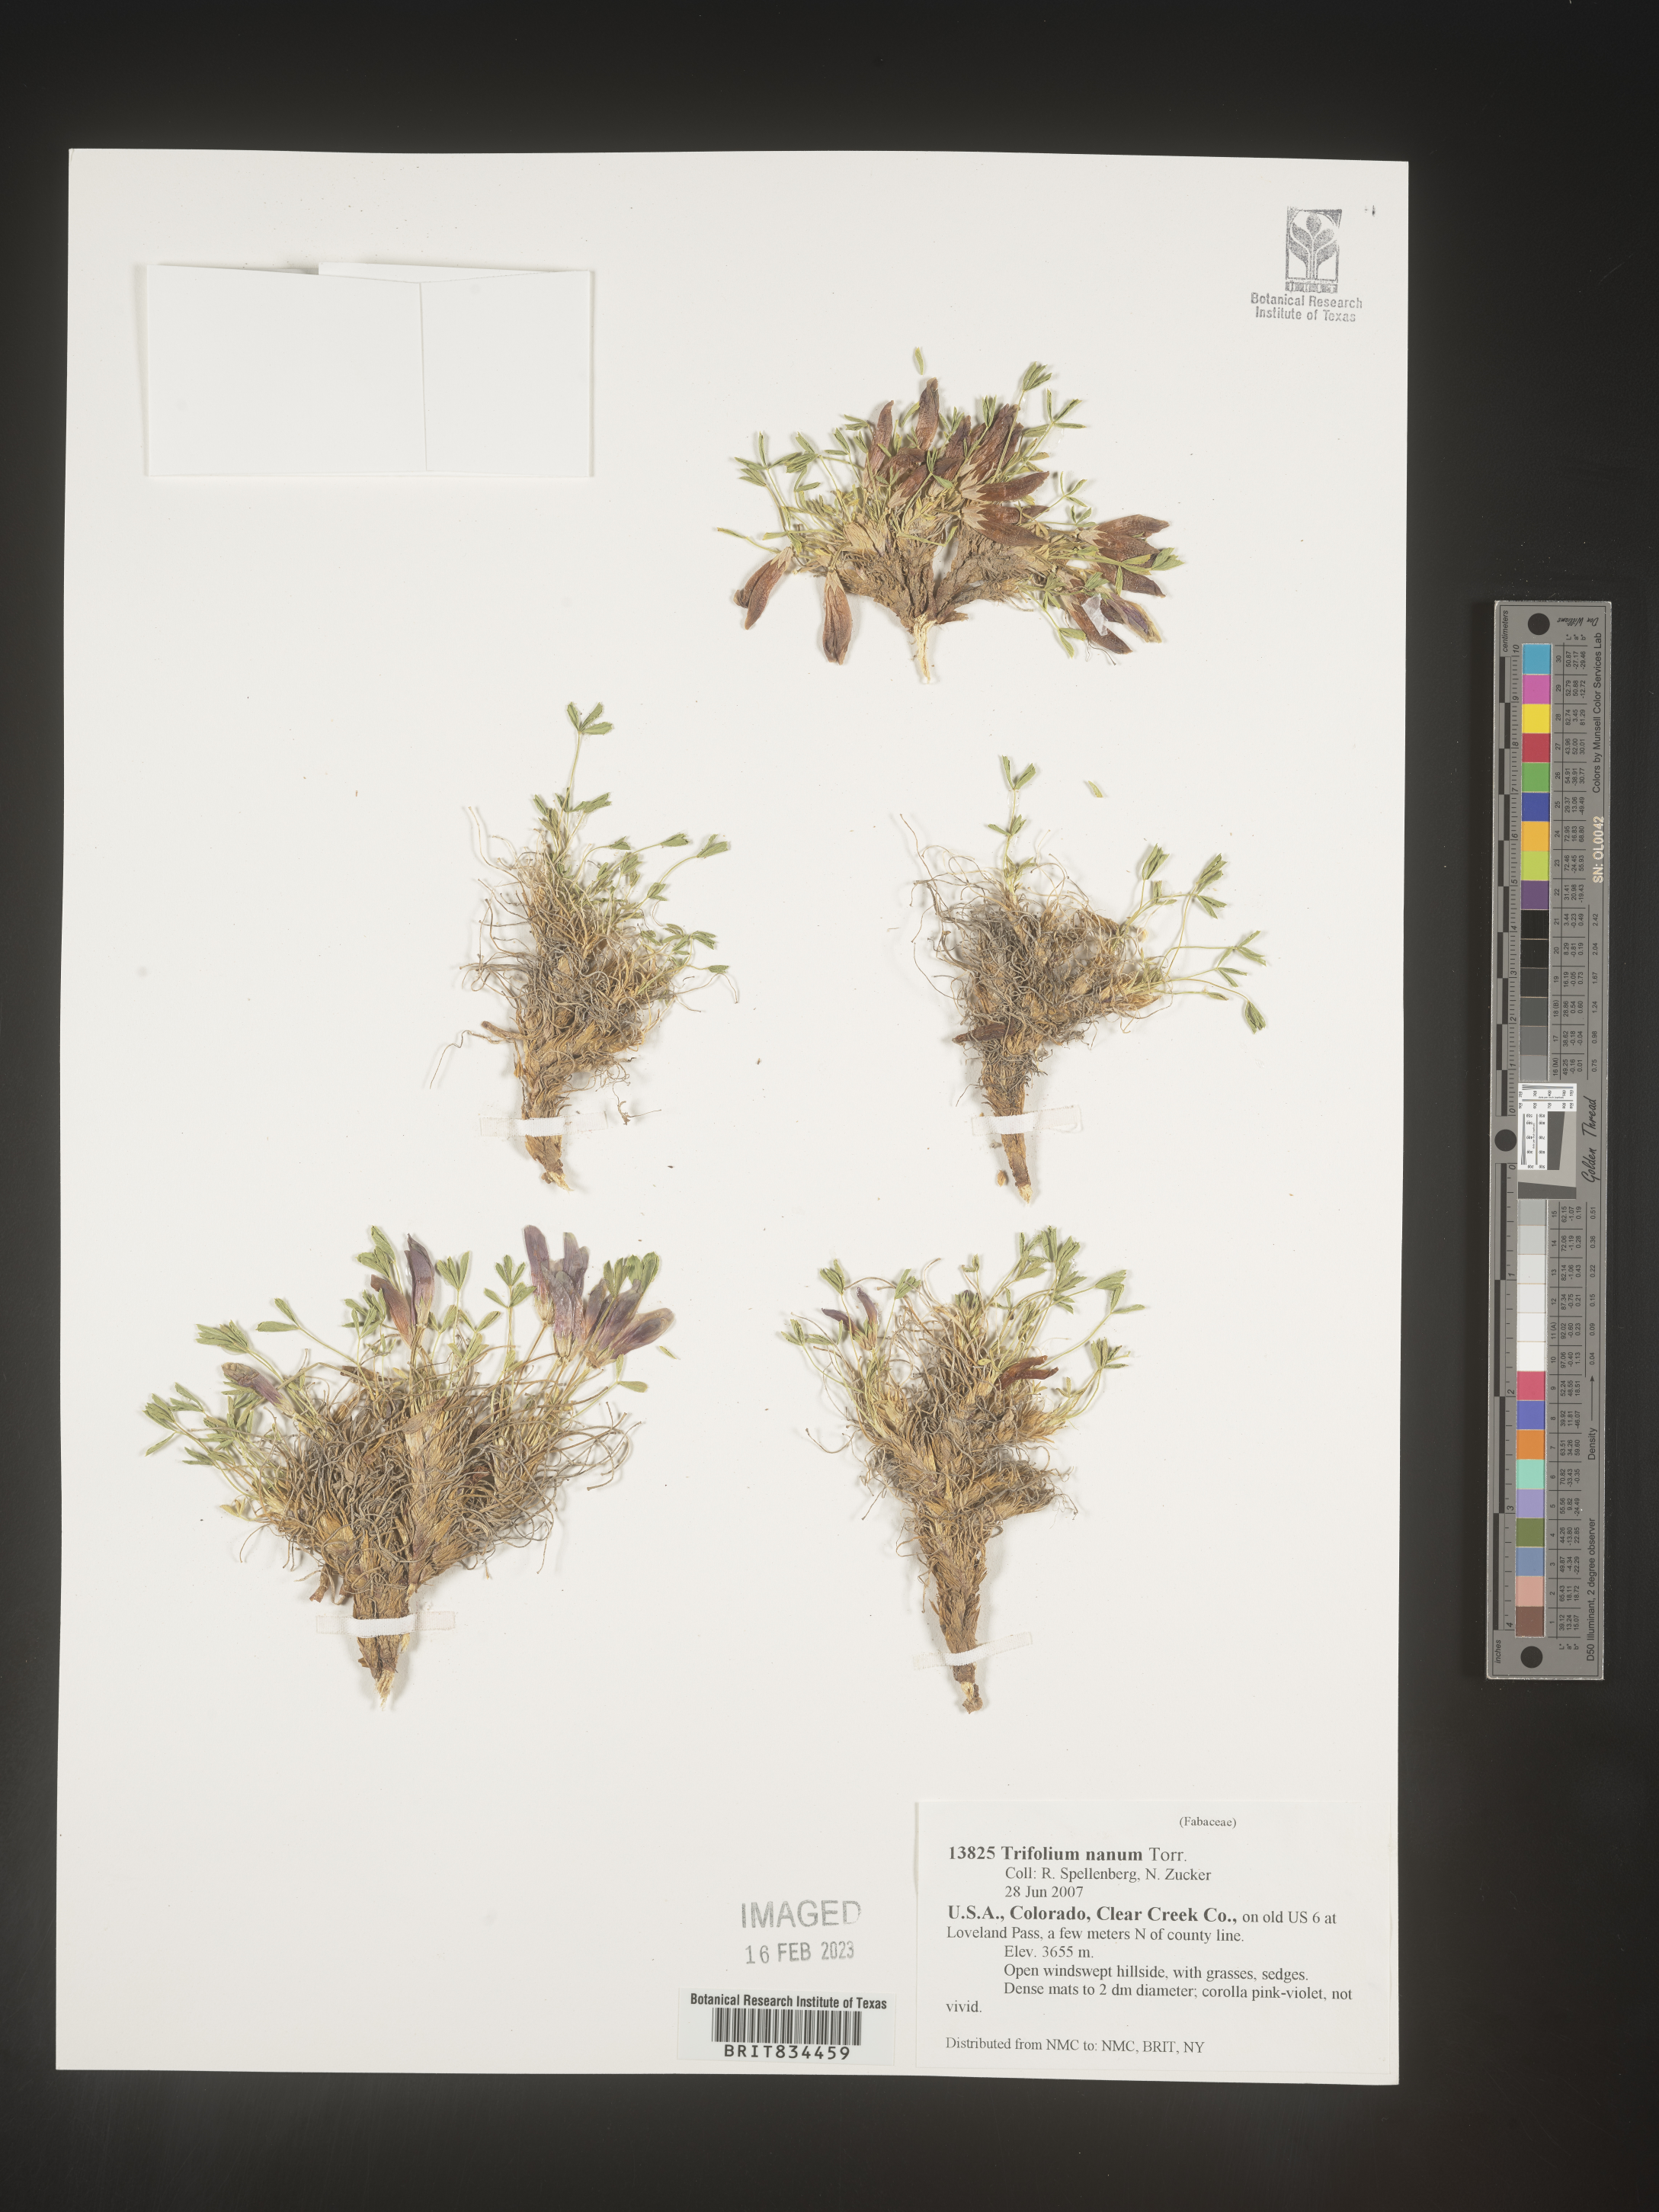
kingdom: Plantae
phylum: Tracheophyta
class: Magnoliopsida
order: Fabales
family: Fabaceae
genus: Trifolium
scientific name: Trifolium
